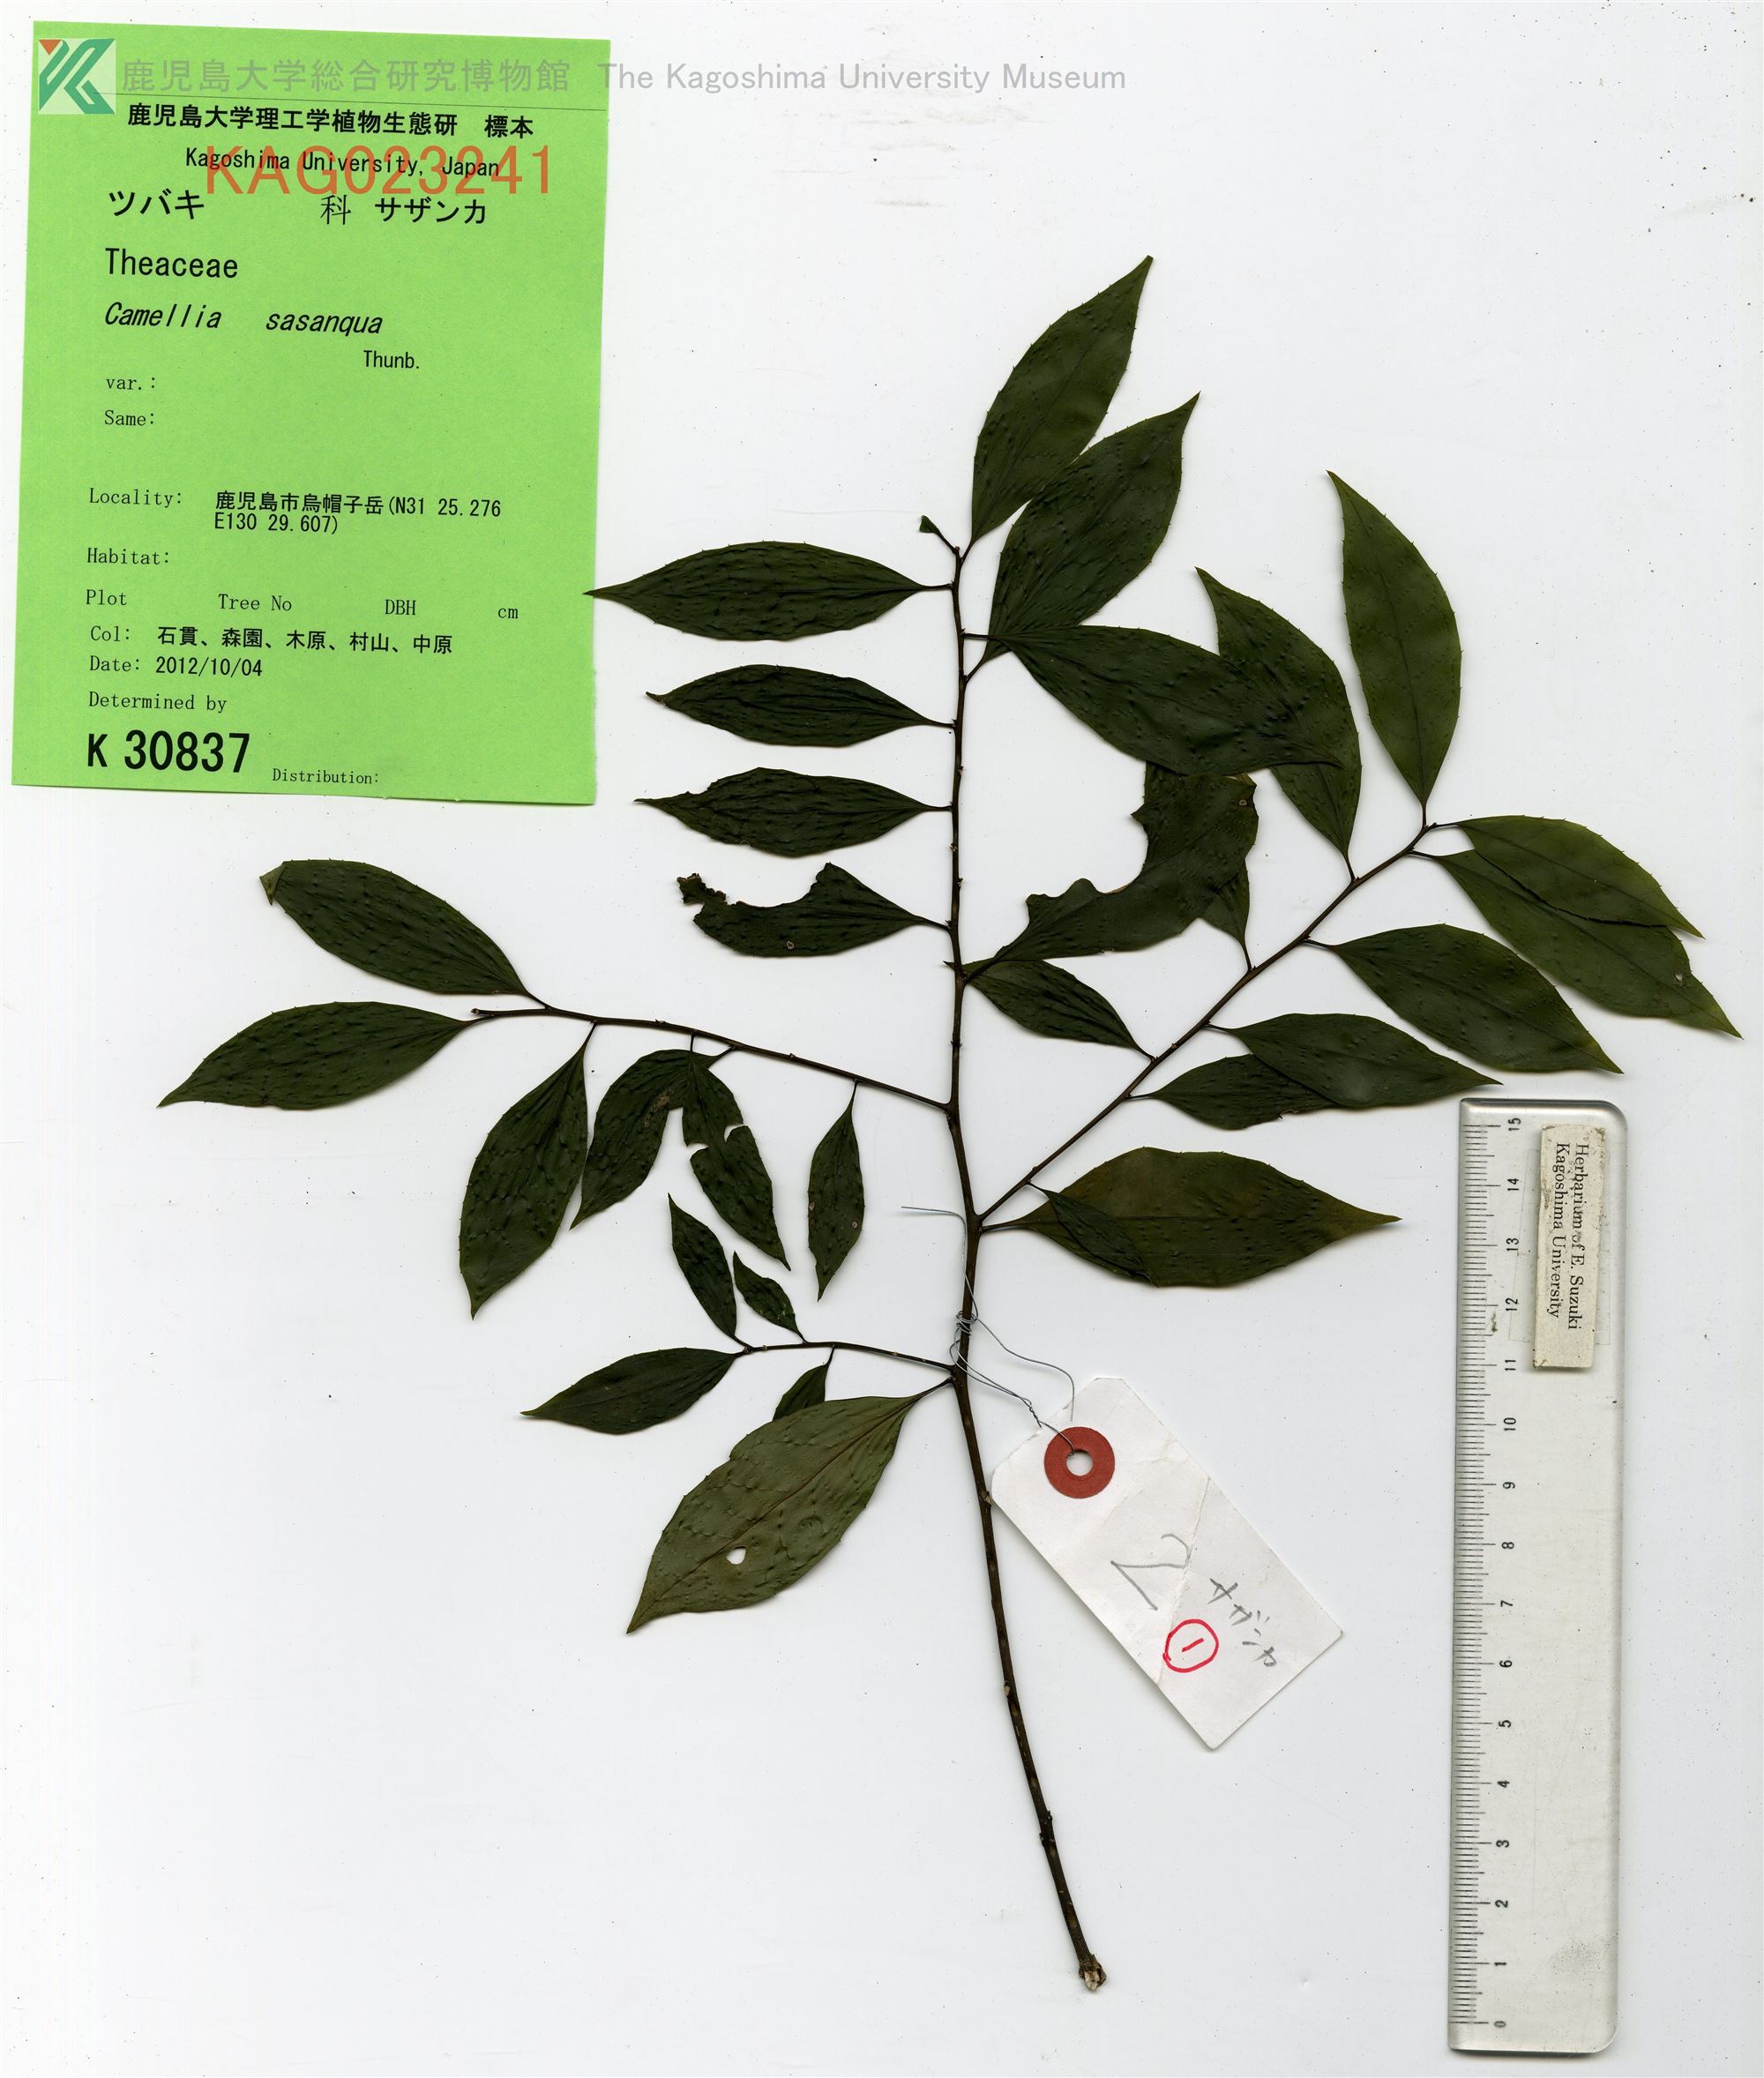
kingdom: Plantae
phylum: Tracheophyta
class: Magnoliopsida
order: Ericales
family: Theaceae
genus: Camellia
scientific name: Camellia sasanqua
